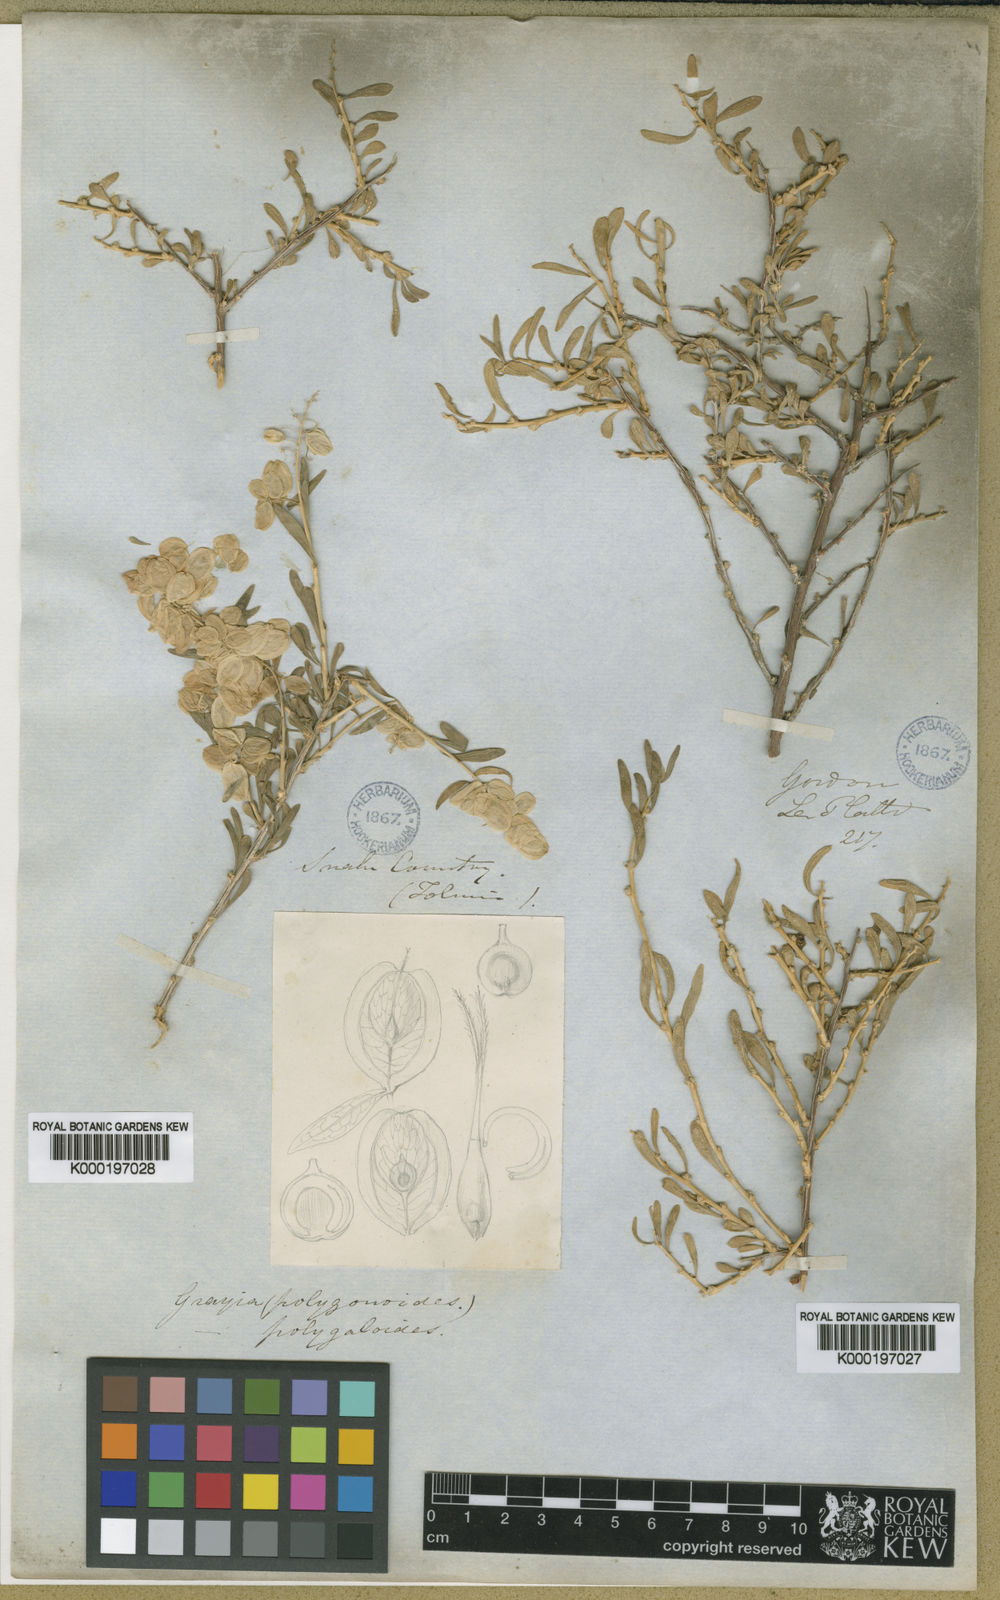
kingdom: Plantae
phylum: Tracheophyta
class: Magnoliopsida
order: Caryophyllales
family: Amaranthaceae
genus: Grayia
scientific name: Grayia spinosa
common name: Spiny hopsage
